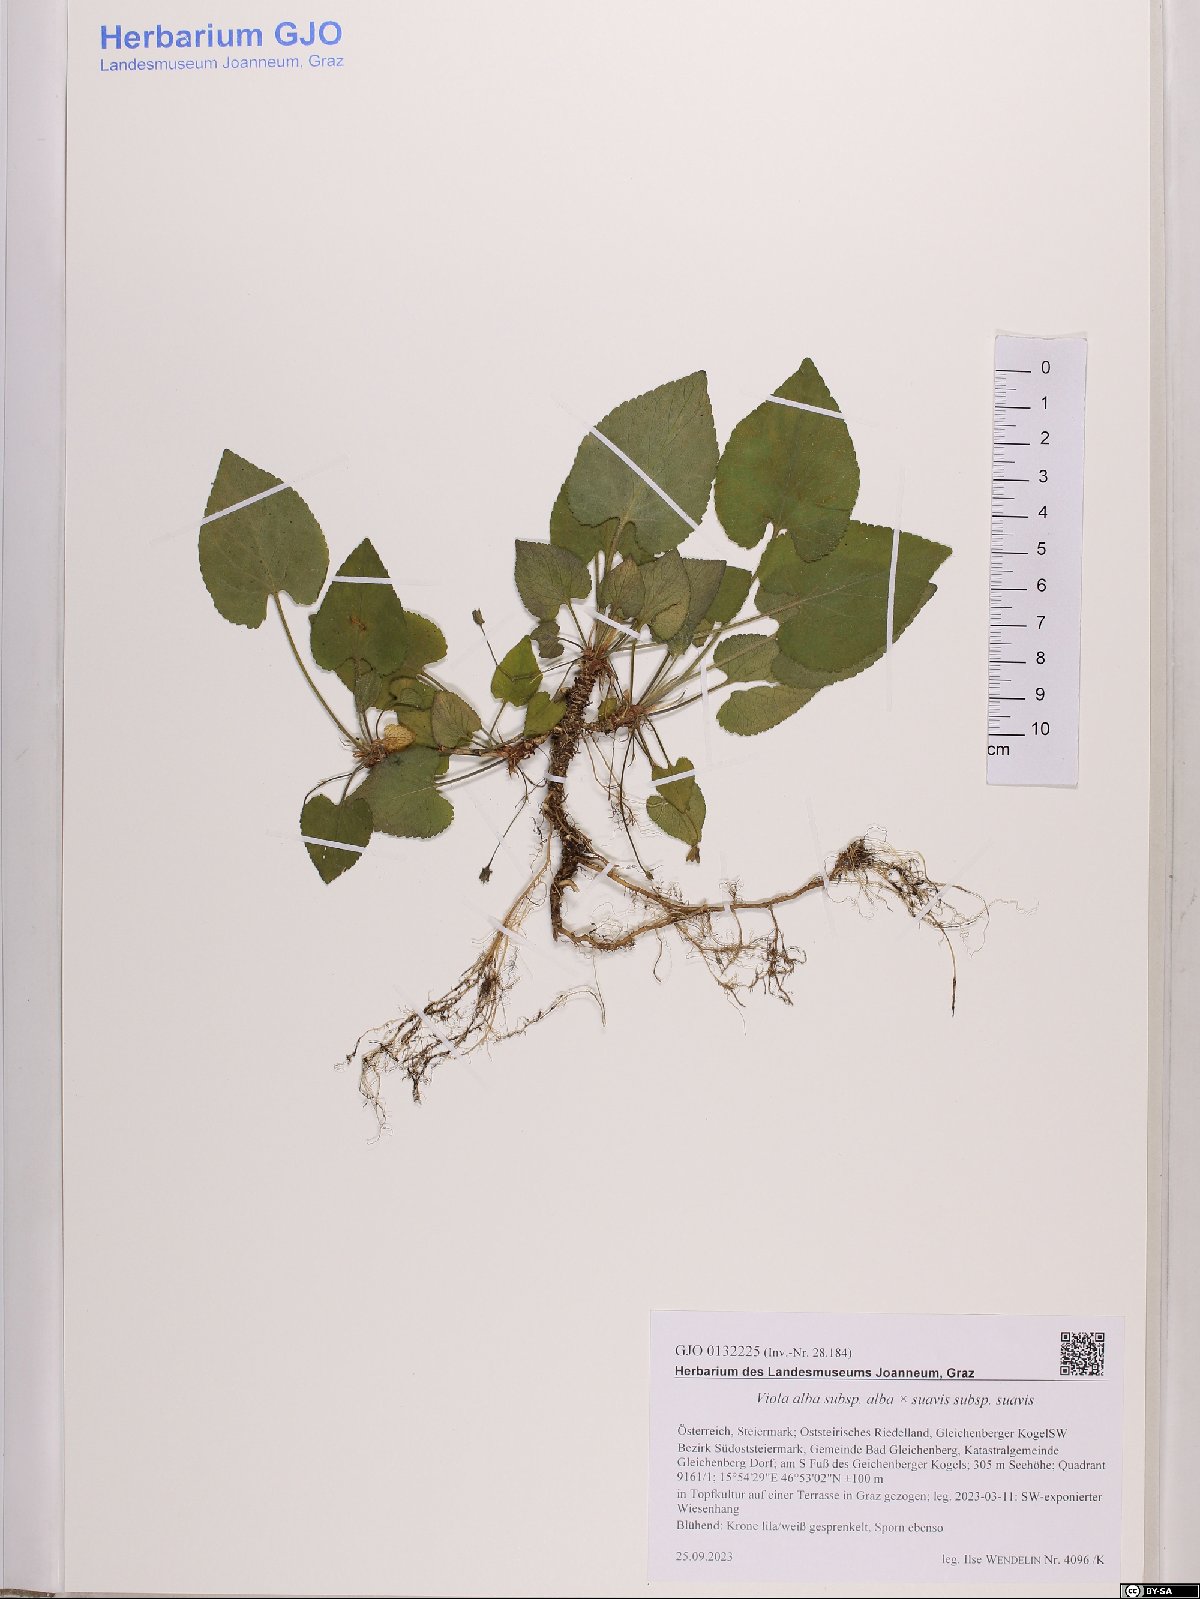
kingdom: Plantae
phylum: Tracheophyta
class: Magnoliopsida
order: Malpighiales
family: Violaceae
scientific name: Violaceae
